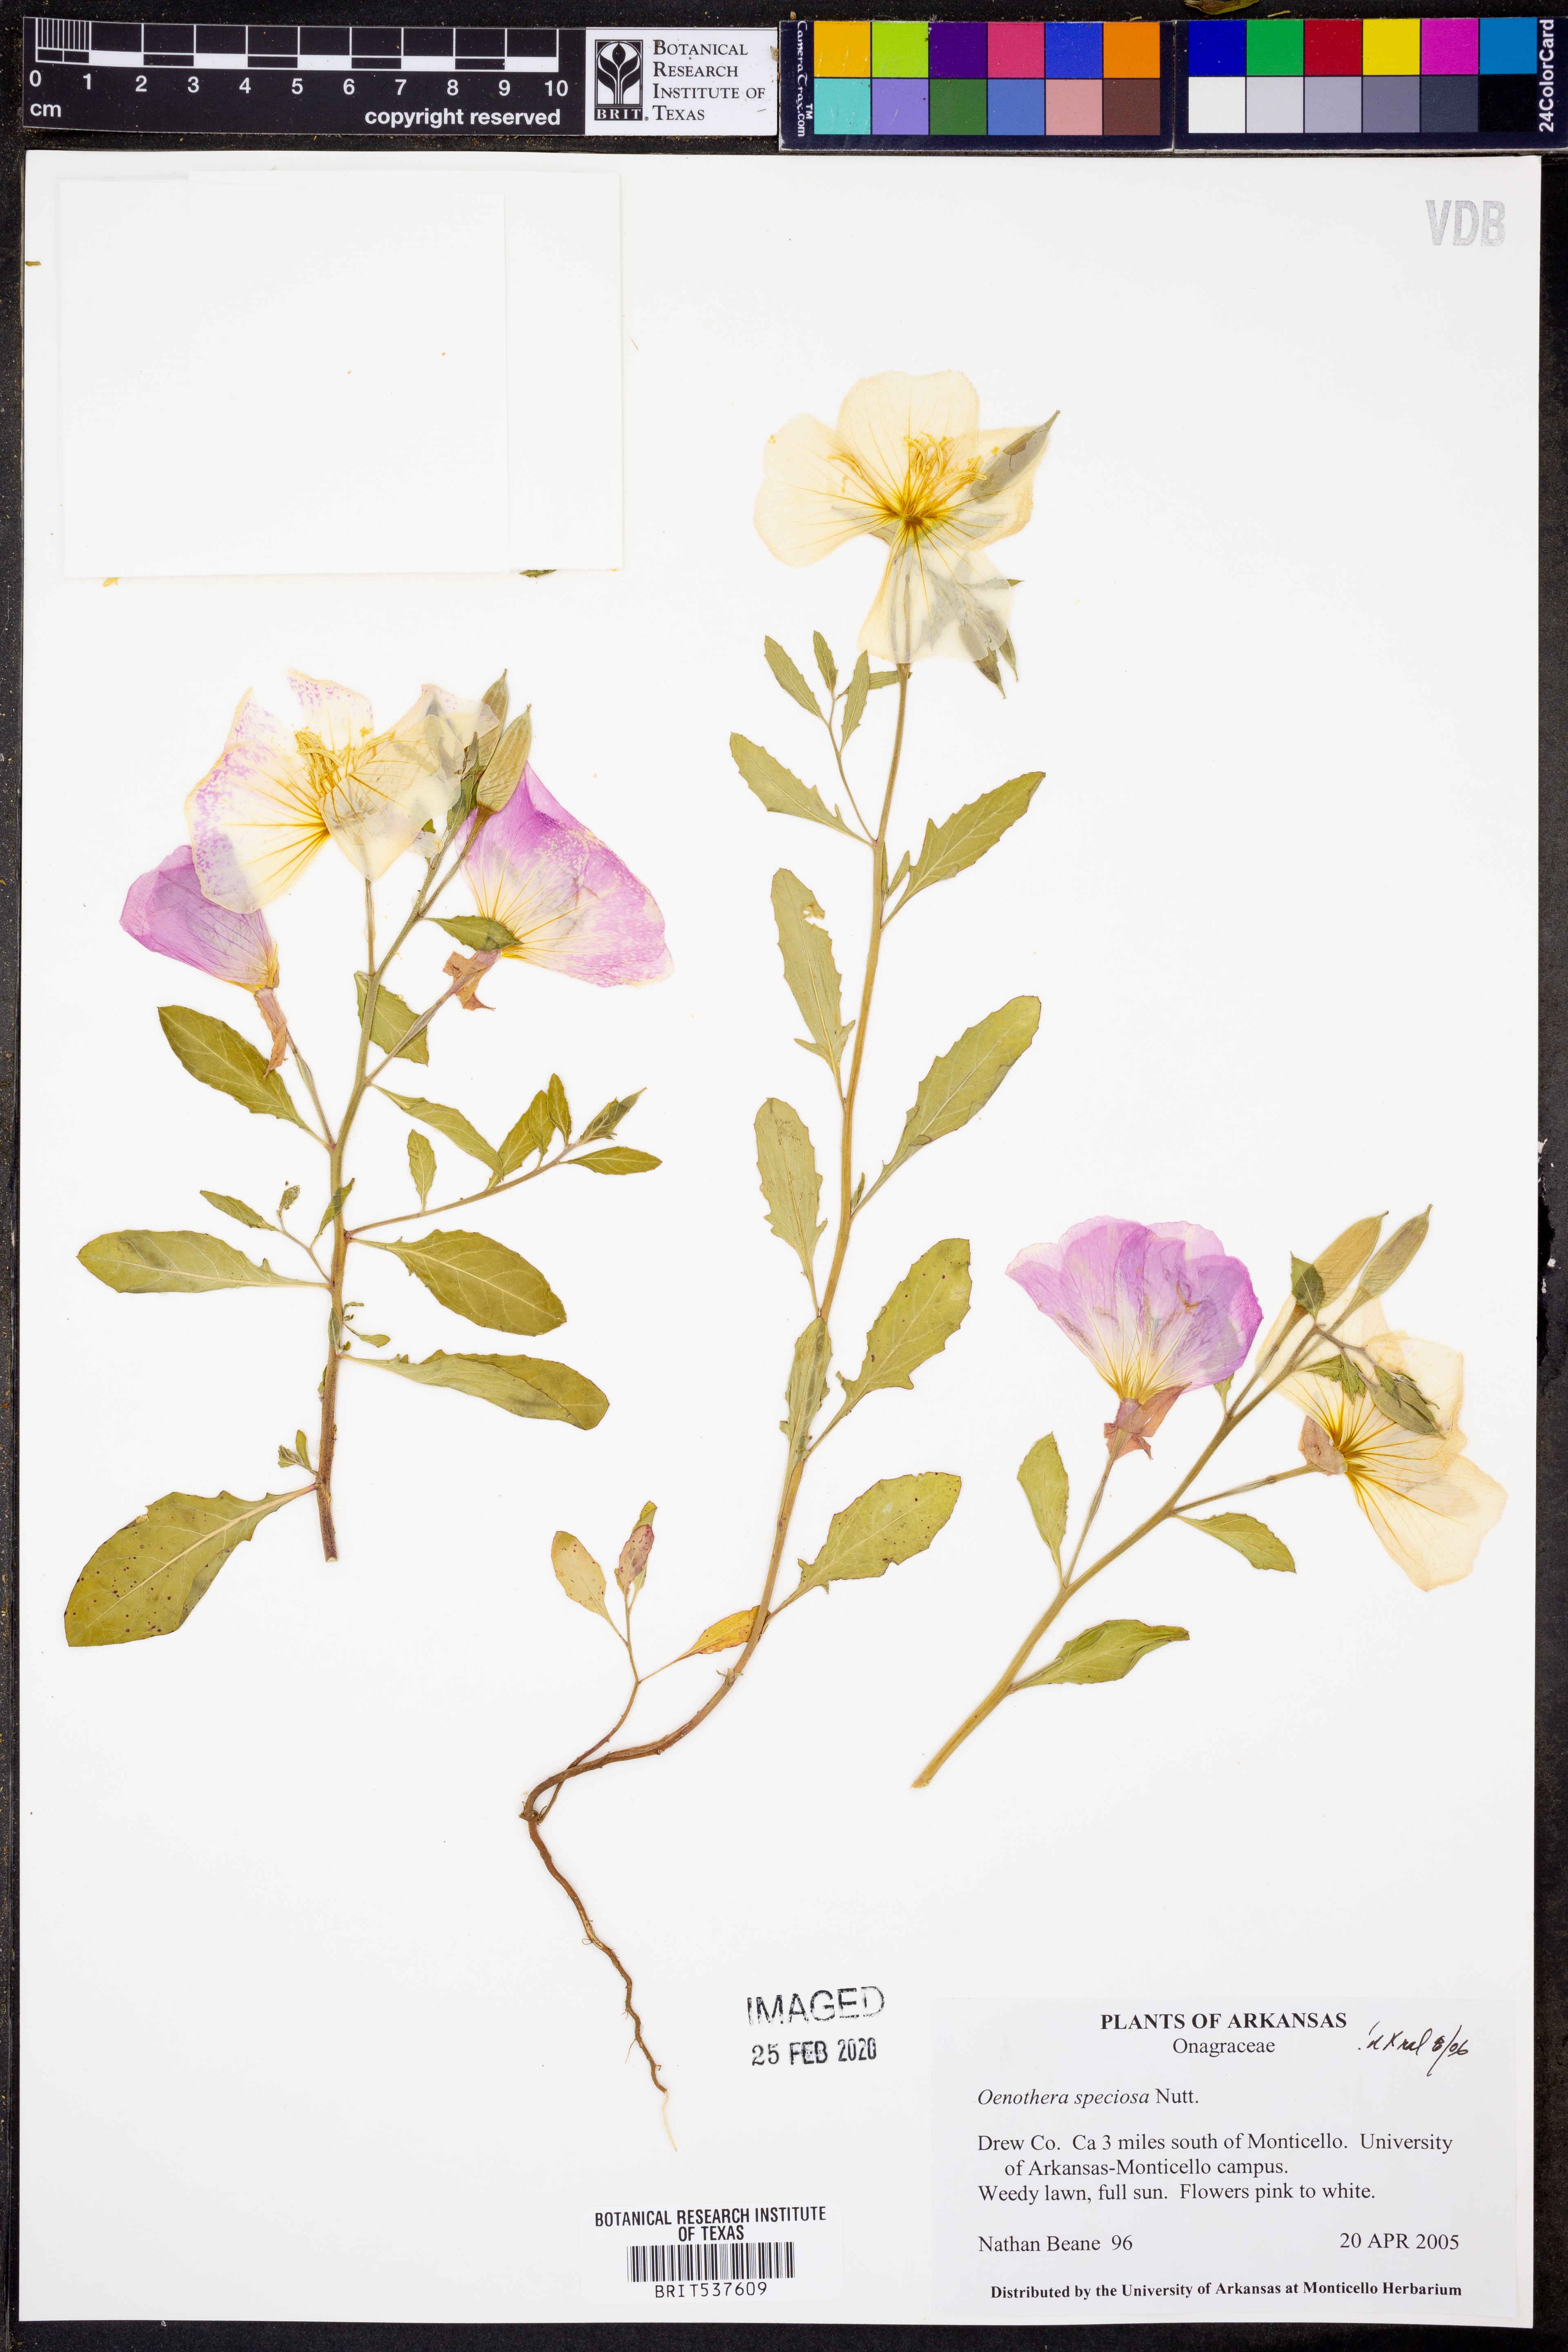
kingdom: Plantae
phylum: Tracheophyta
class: Magnoliopsida
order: Myrtales
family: Onagraceae
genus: Oenothera
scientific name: Oenothera speciosa
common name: White evening-primrose
